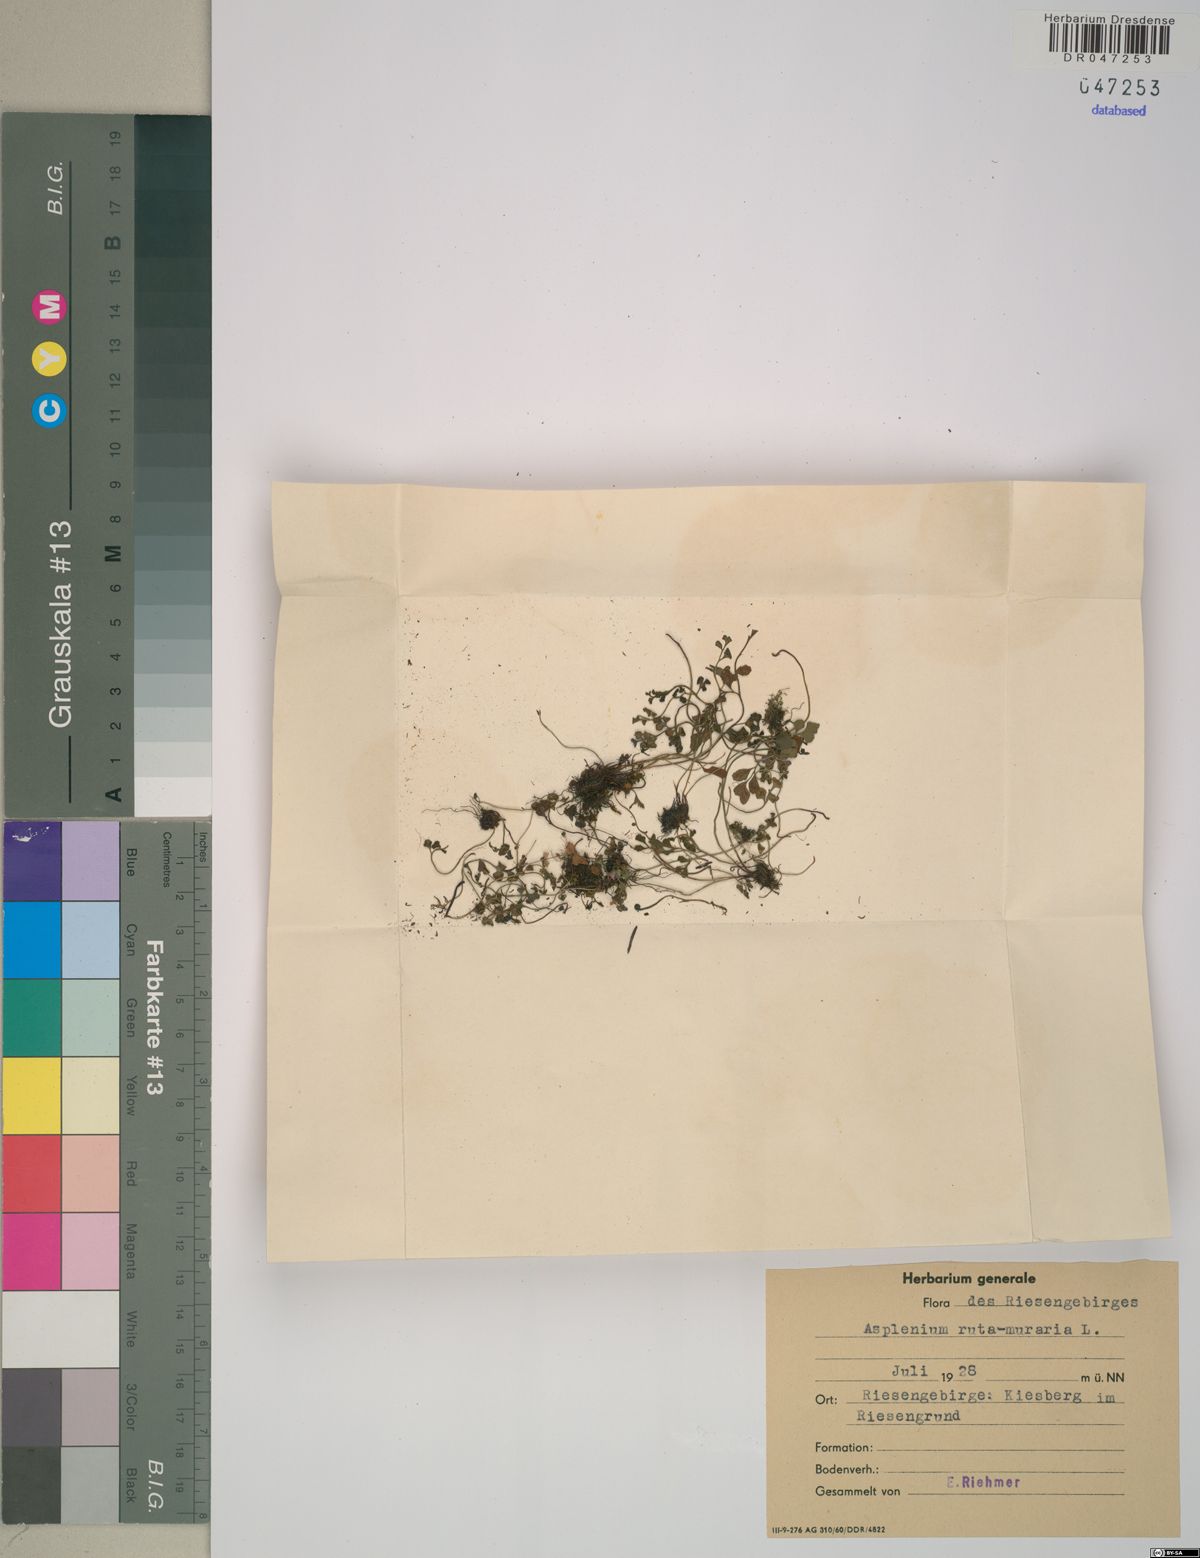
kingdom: Plantae
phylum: Tracheophyta
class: Polypodiopsida
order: Polypodiales
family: Aspleniaceae
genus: Asplenium
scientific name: Asplenium ruta-muraria
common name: Wall-rue
